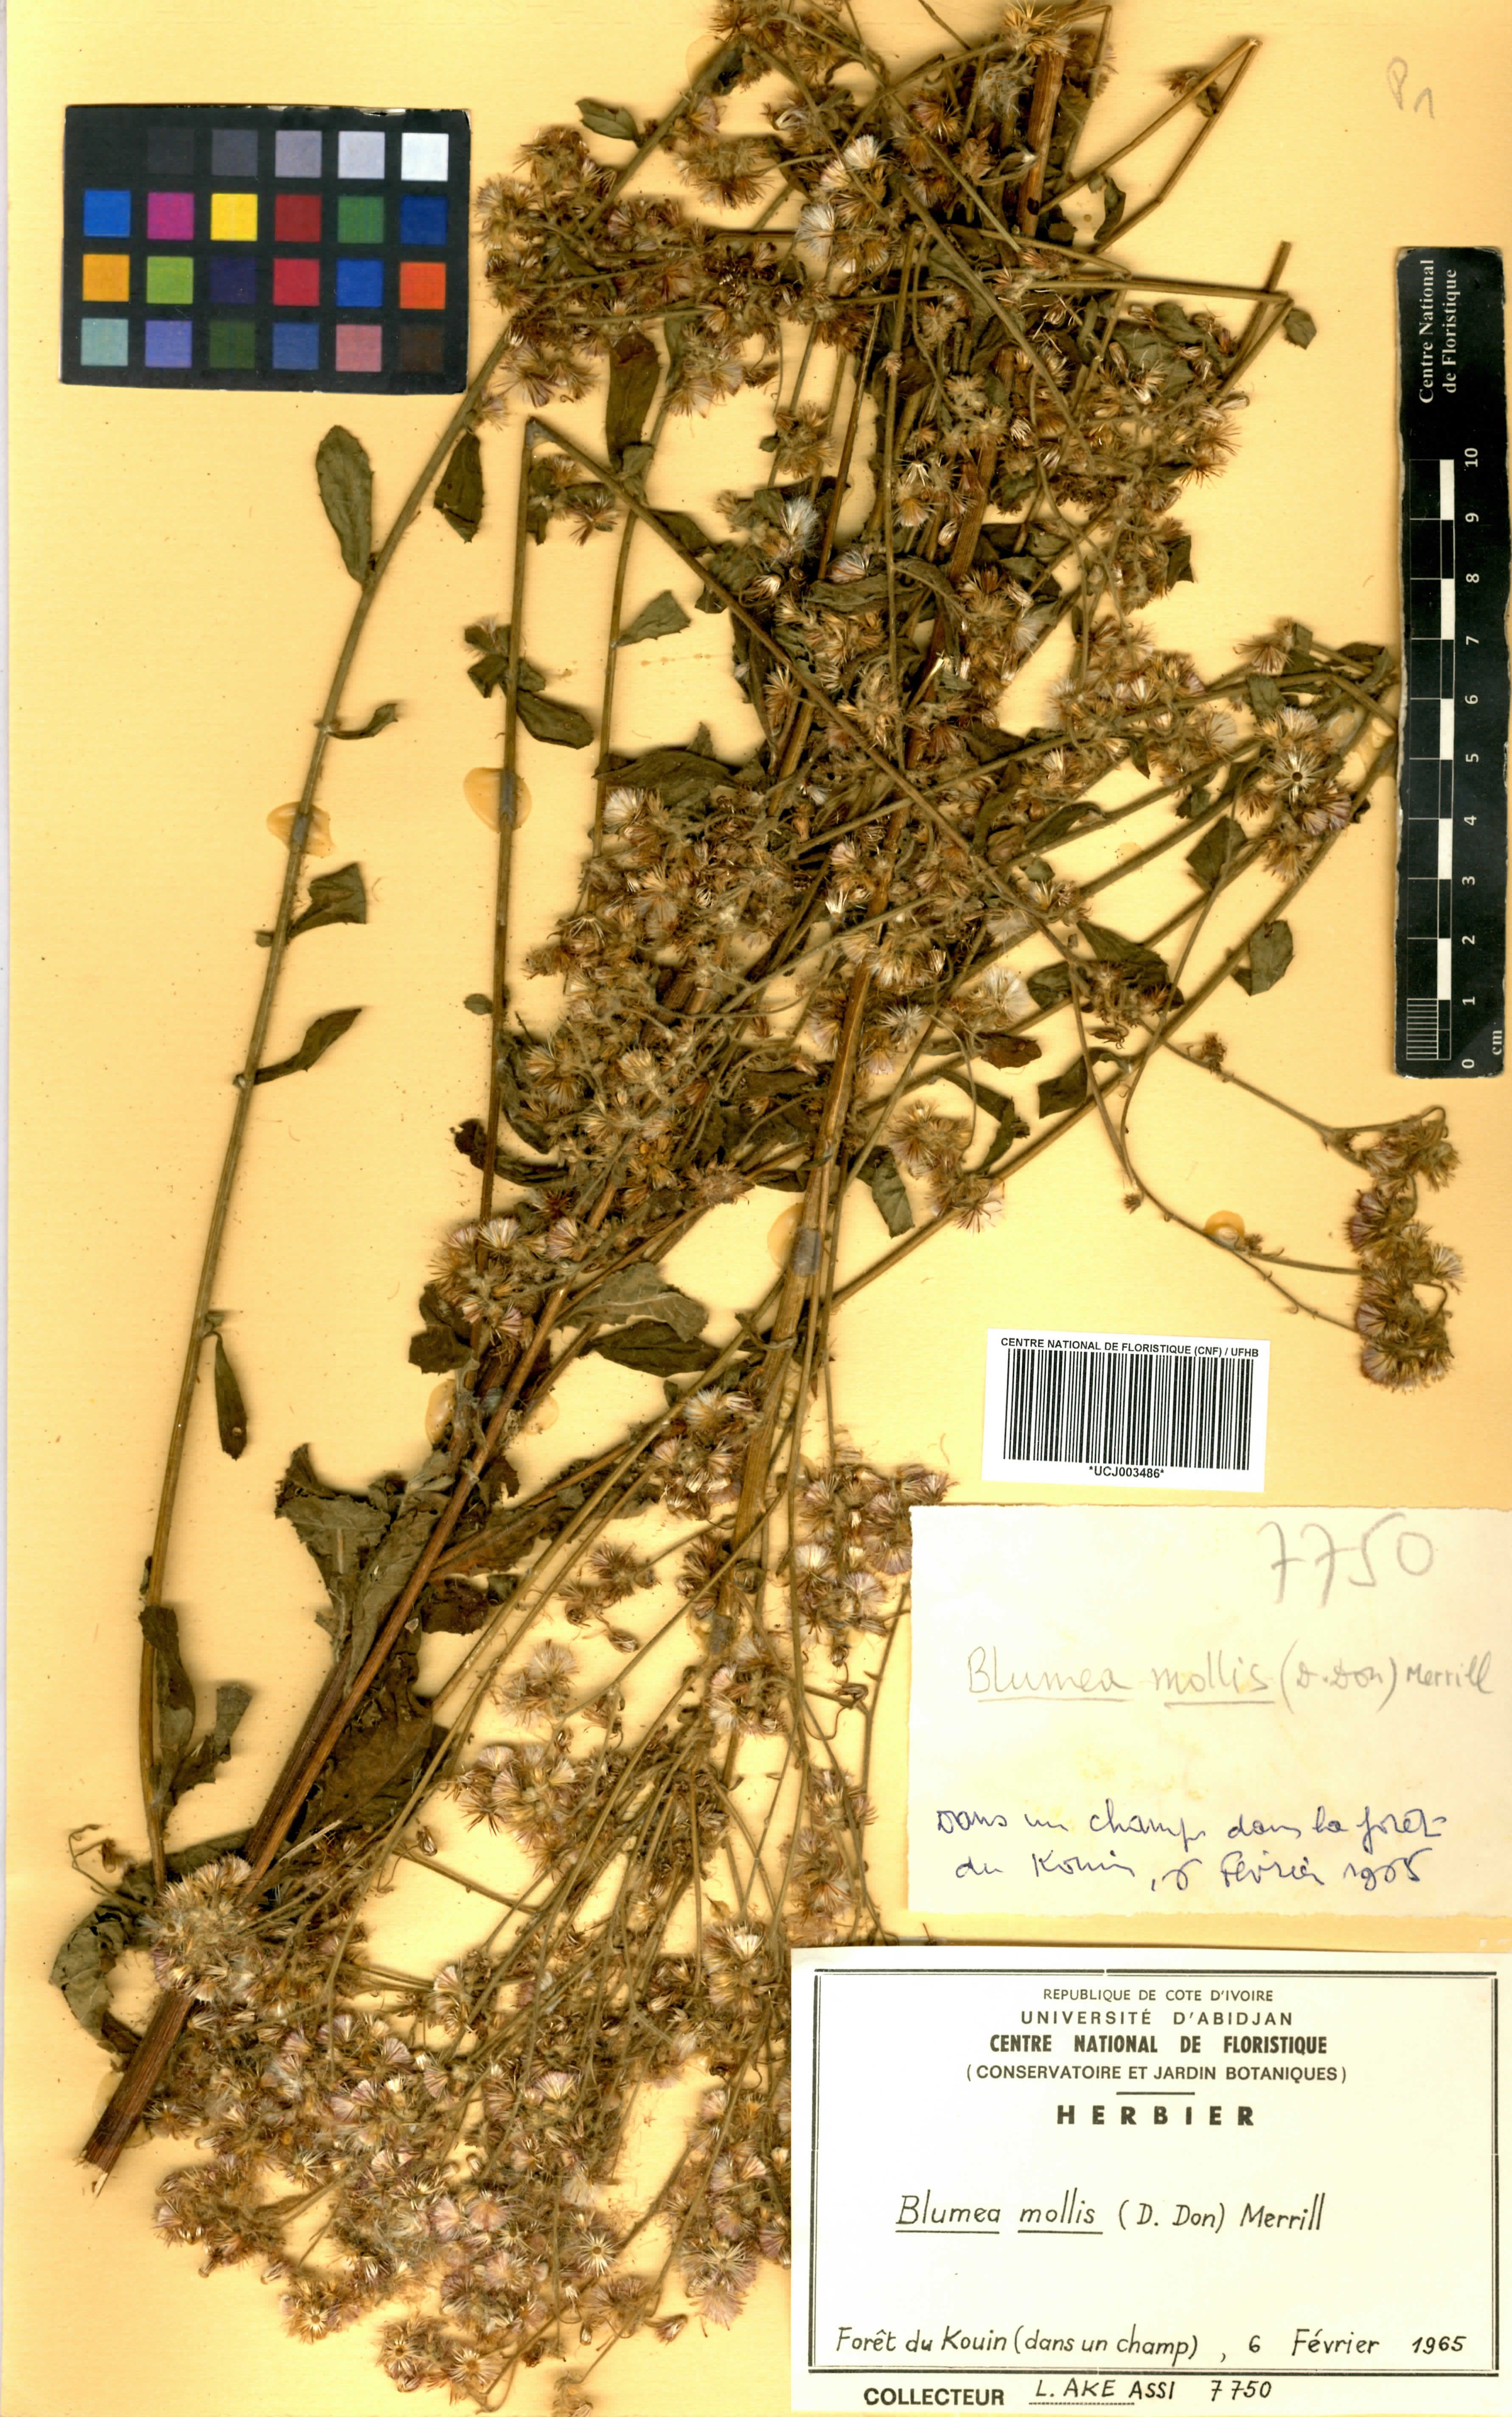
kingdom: Plantae
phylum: Tracheophyta
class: Magnoliopsida
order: Asterales
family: Asteraceae
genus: Blumea
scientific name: Blumea axillaris
